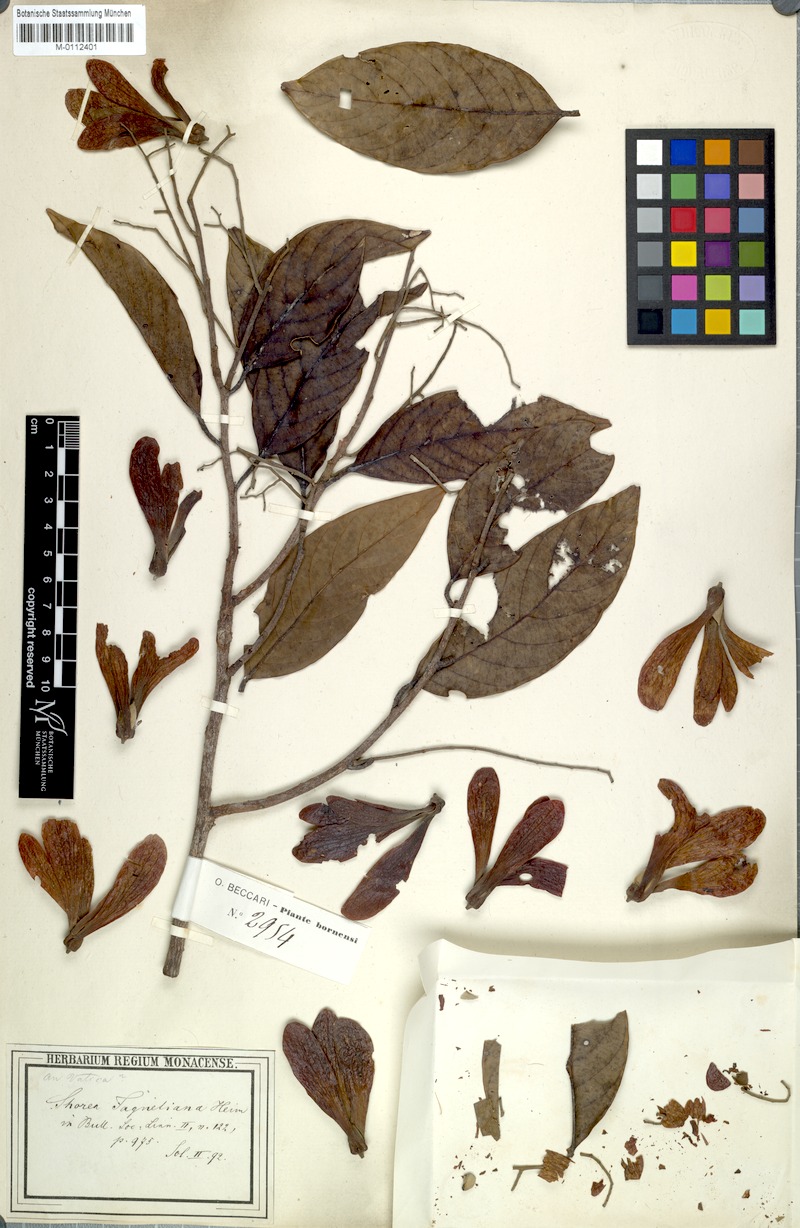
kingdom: Plantae
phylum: Tracheophyta
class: Magnoliopsida
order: Malvales
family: Dipterocarpaceae
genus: Shorea
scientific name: Shorea faguetiana
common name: Yellow meranti
